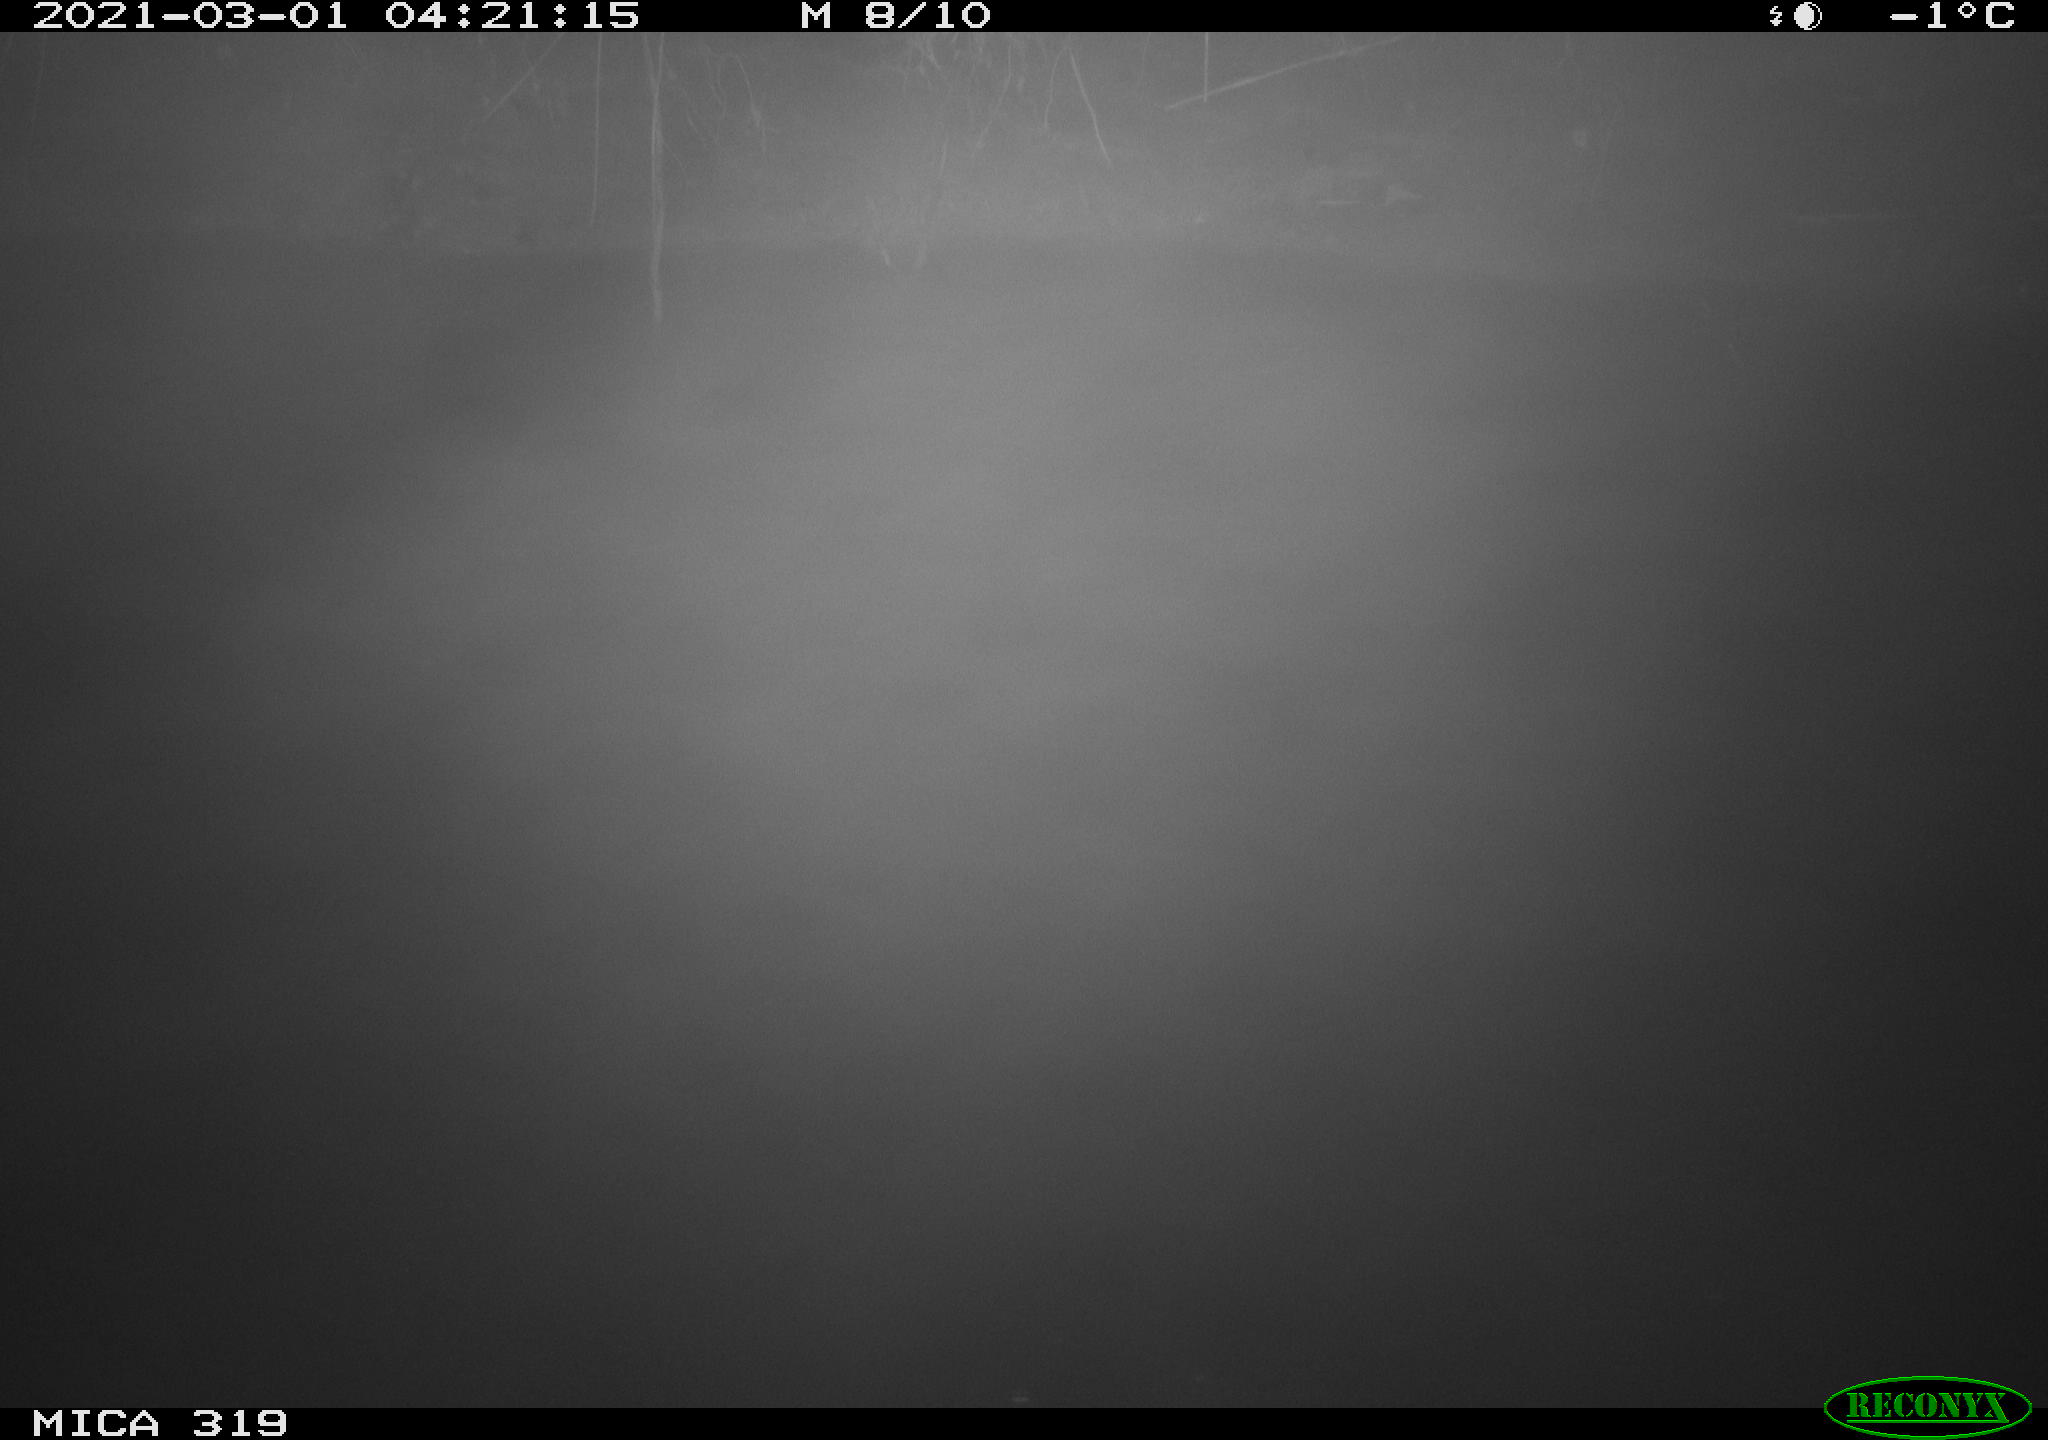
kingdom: Animalia
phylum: Chordata
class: Aves
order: Anseriformes
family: Anatidae
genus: Anas
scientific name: Anas
